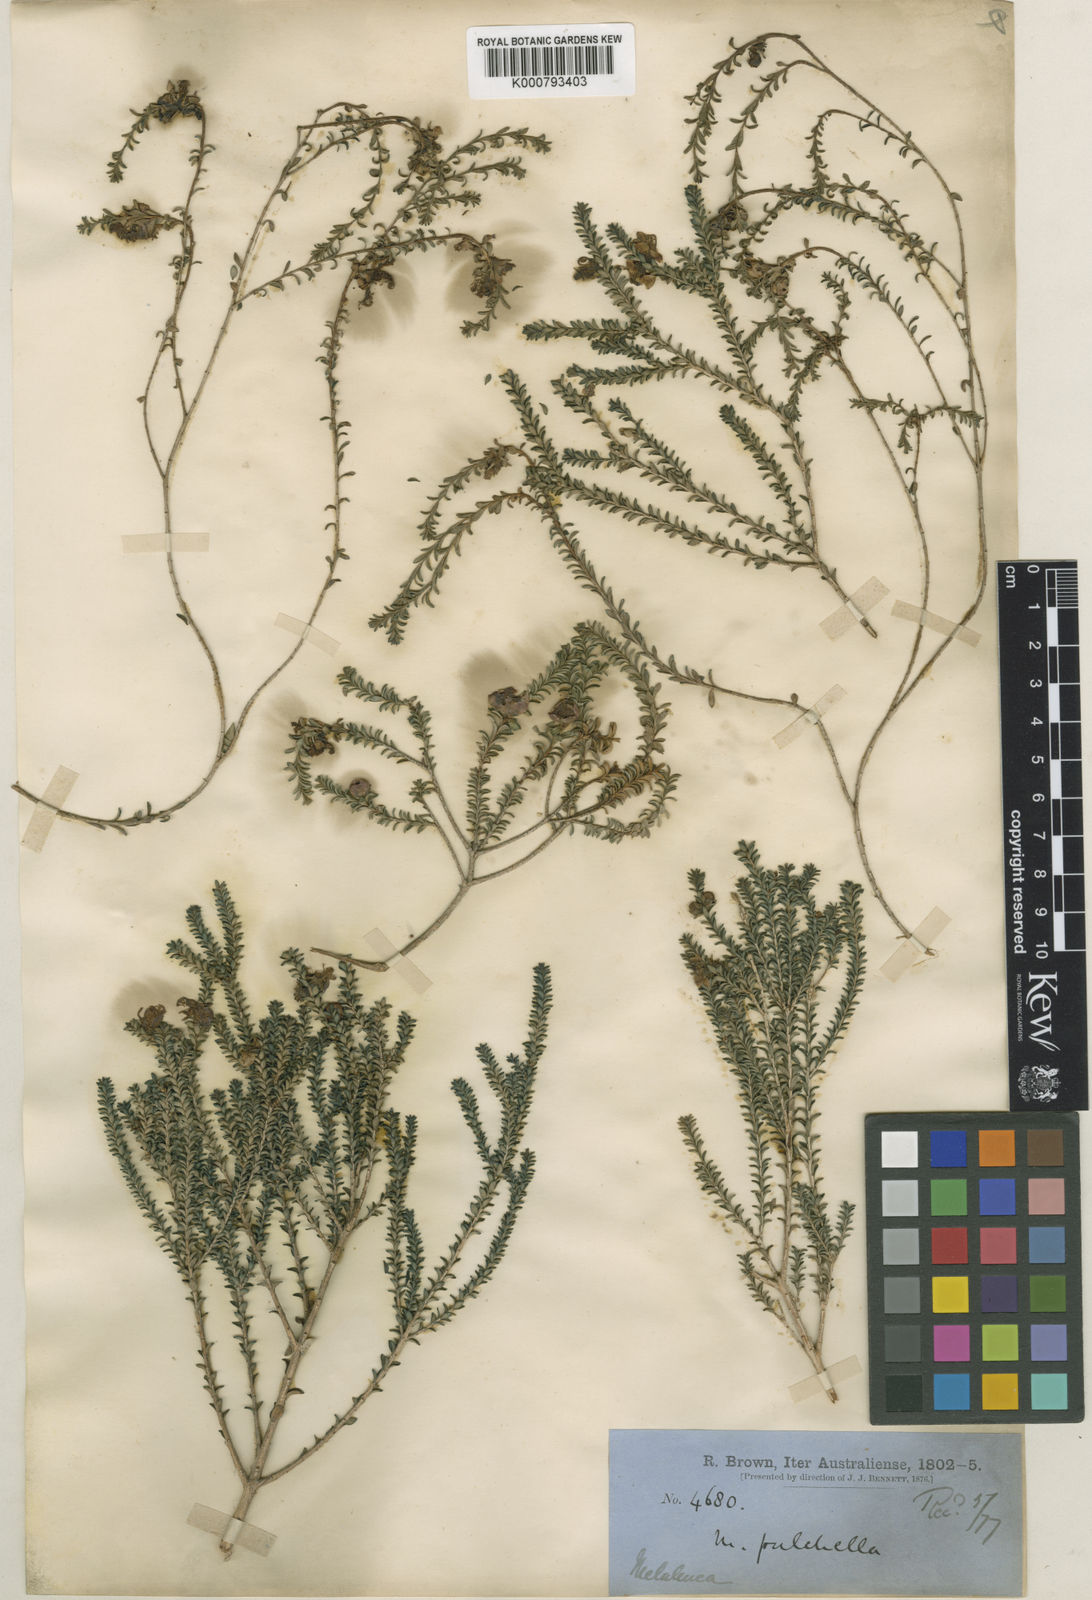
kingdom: Plantae
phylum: Tracheophyta
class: Magnoliopsida
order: Myrtales
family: Myrtaceae
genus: Melaleuca
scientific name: Melaleuca pulchella
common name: Claw-flower
